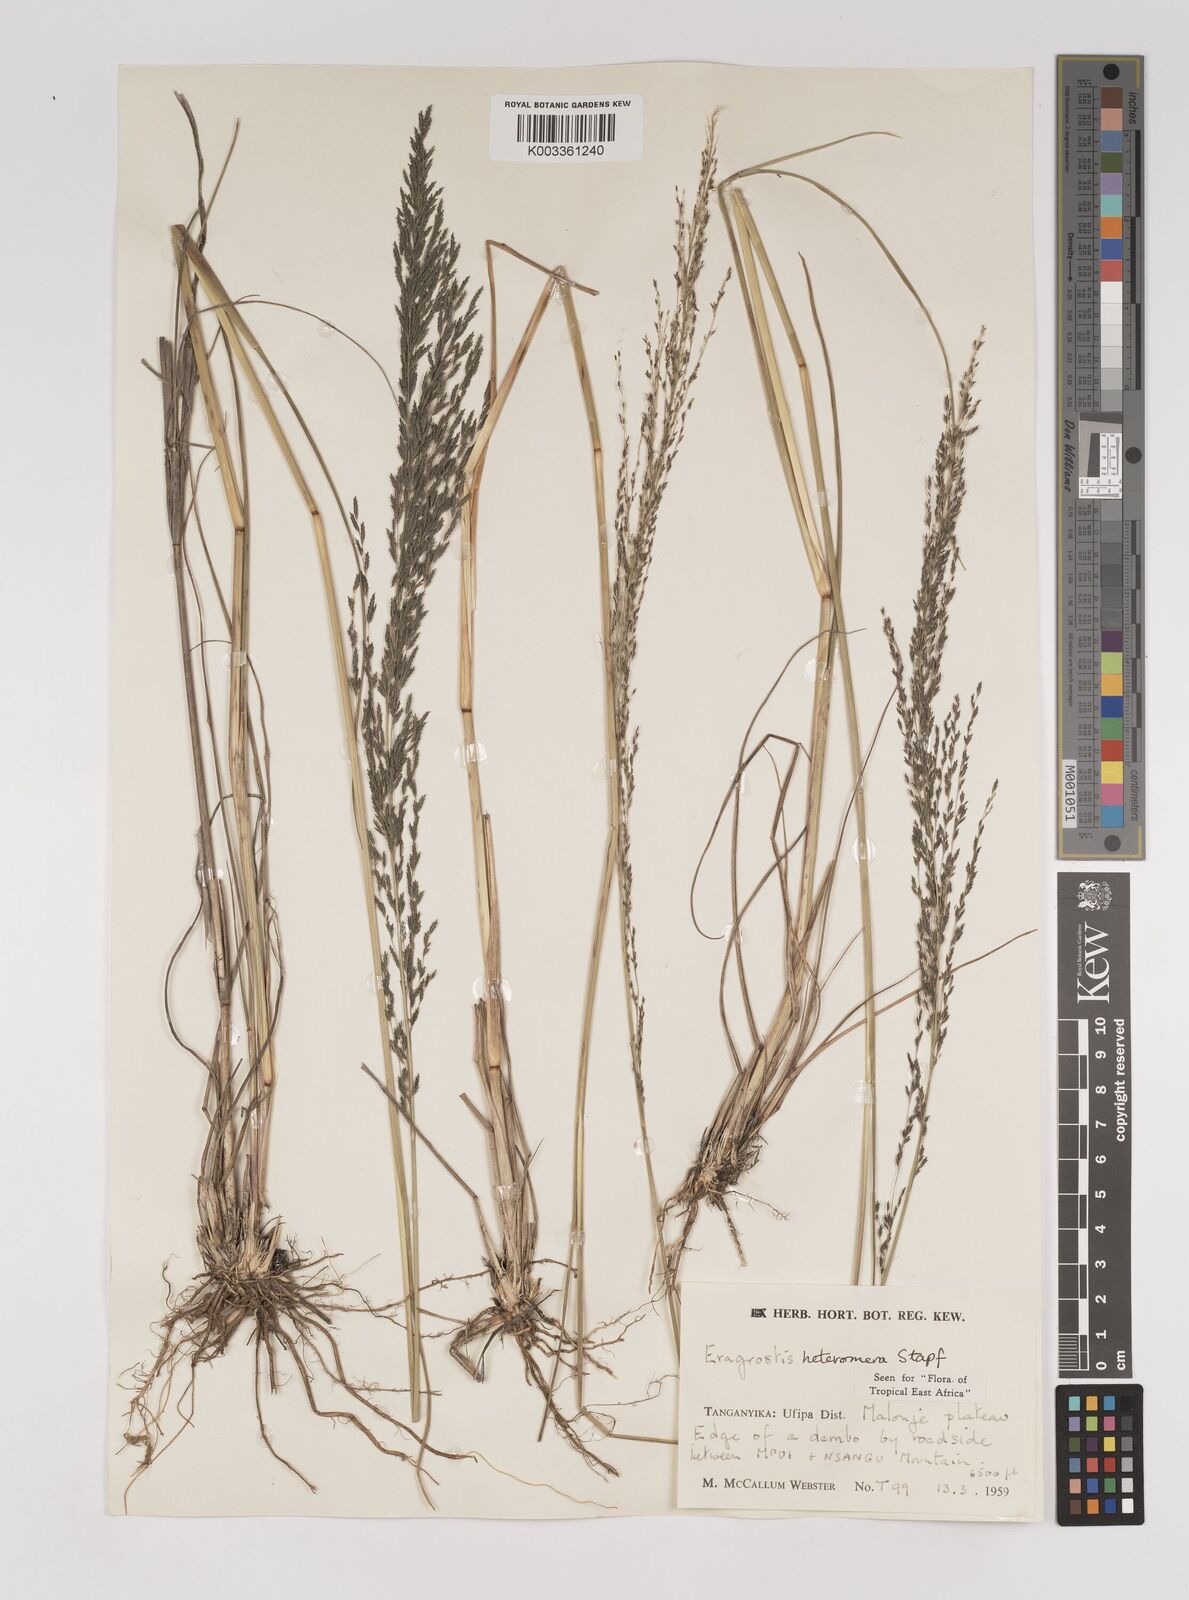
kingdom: Plantae
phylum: Tracheophyta
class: Liliopsida
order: Poales
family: Poaceae
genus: Eragrostis
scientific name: Eragrostis heteromera
